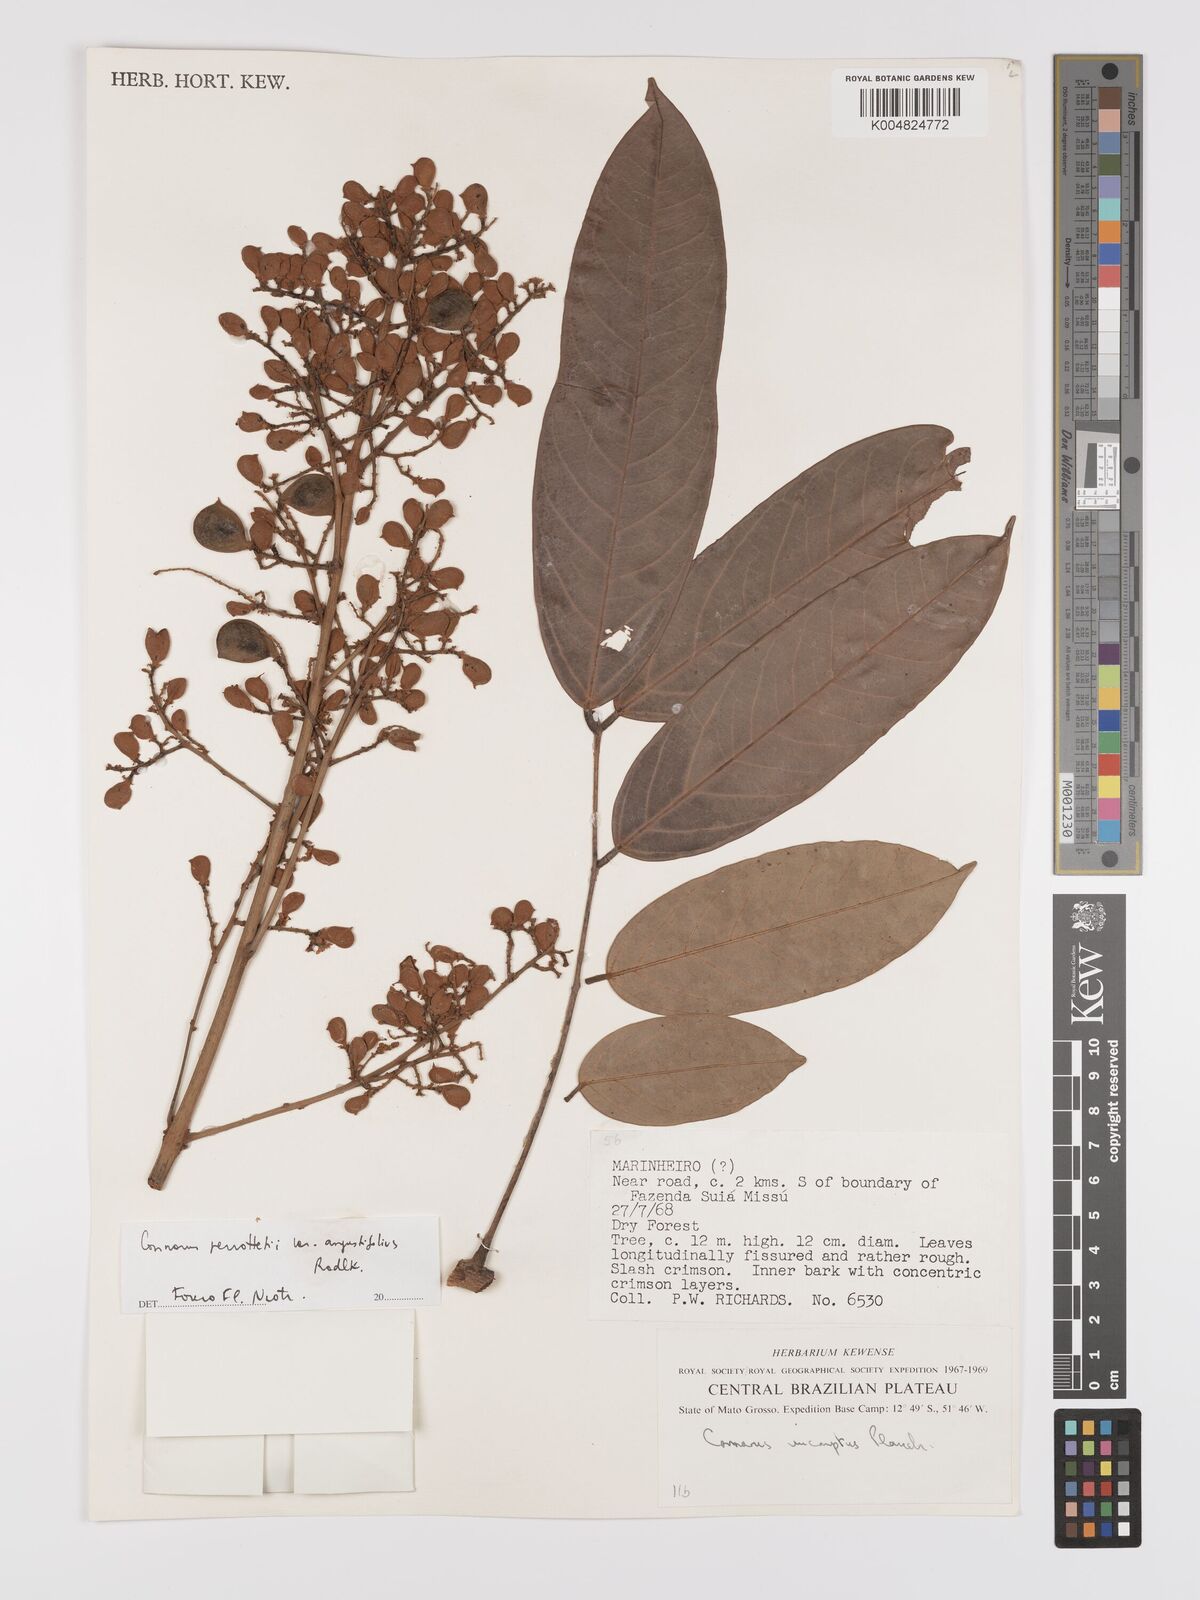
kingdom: Plantae
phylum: Tracheophyta
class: Magnoliopsida
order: Oxalidales
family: Connaraceae
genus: Connarus
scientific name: Connarus perrottetii
